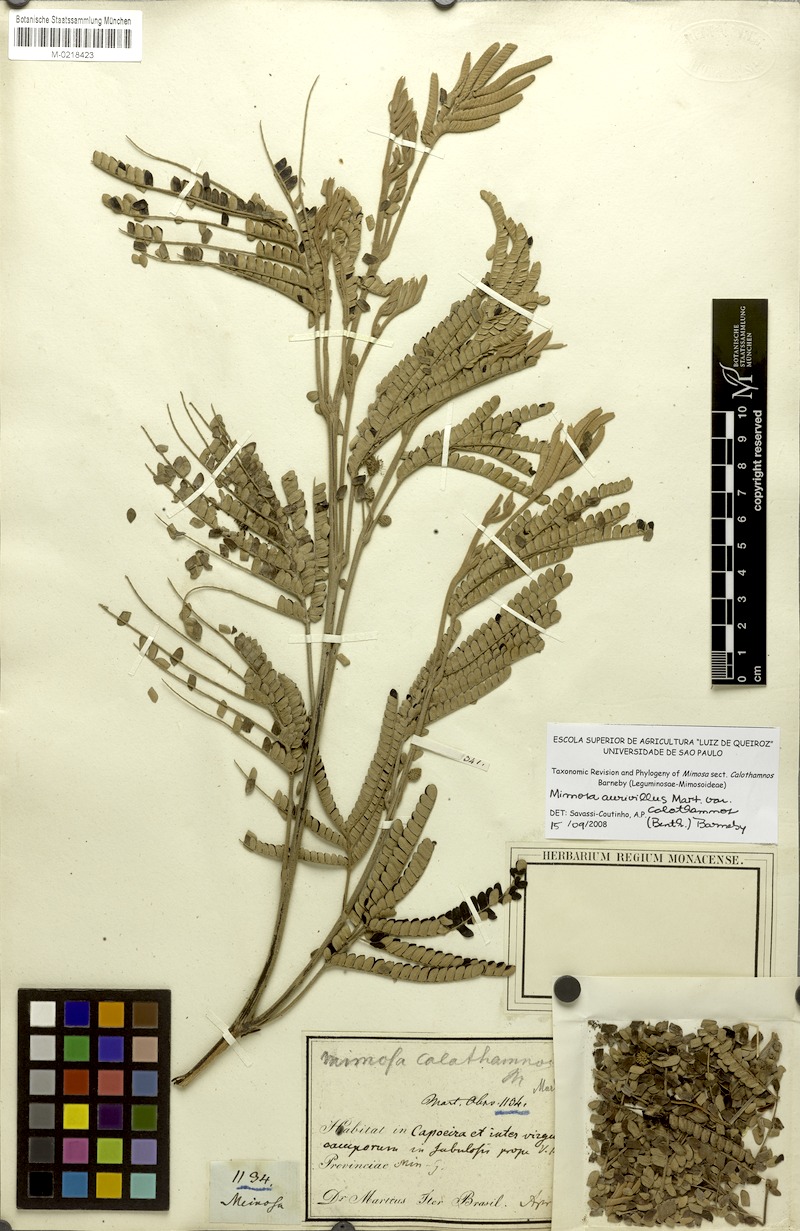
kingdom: Plantae
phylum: Tracheophyta
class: Magnoliopsida
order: Fabales
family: Fabaceae
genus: Mimosa
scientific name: Mimosa aurivillus
